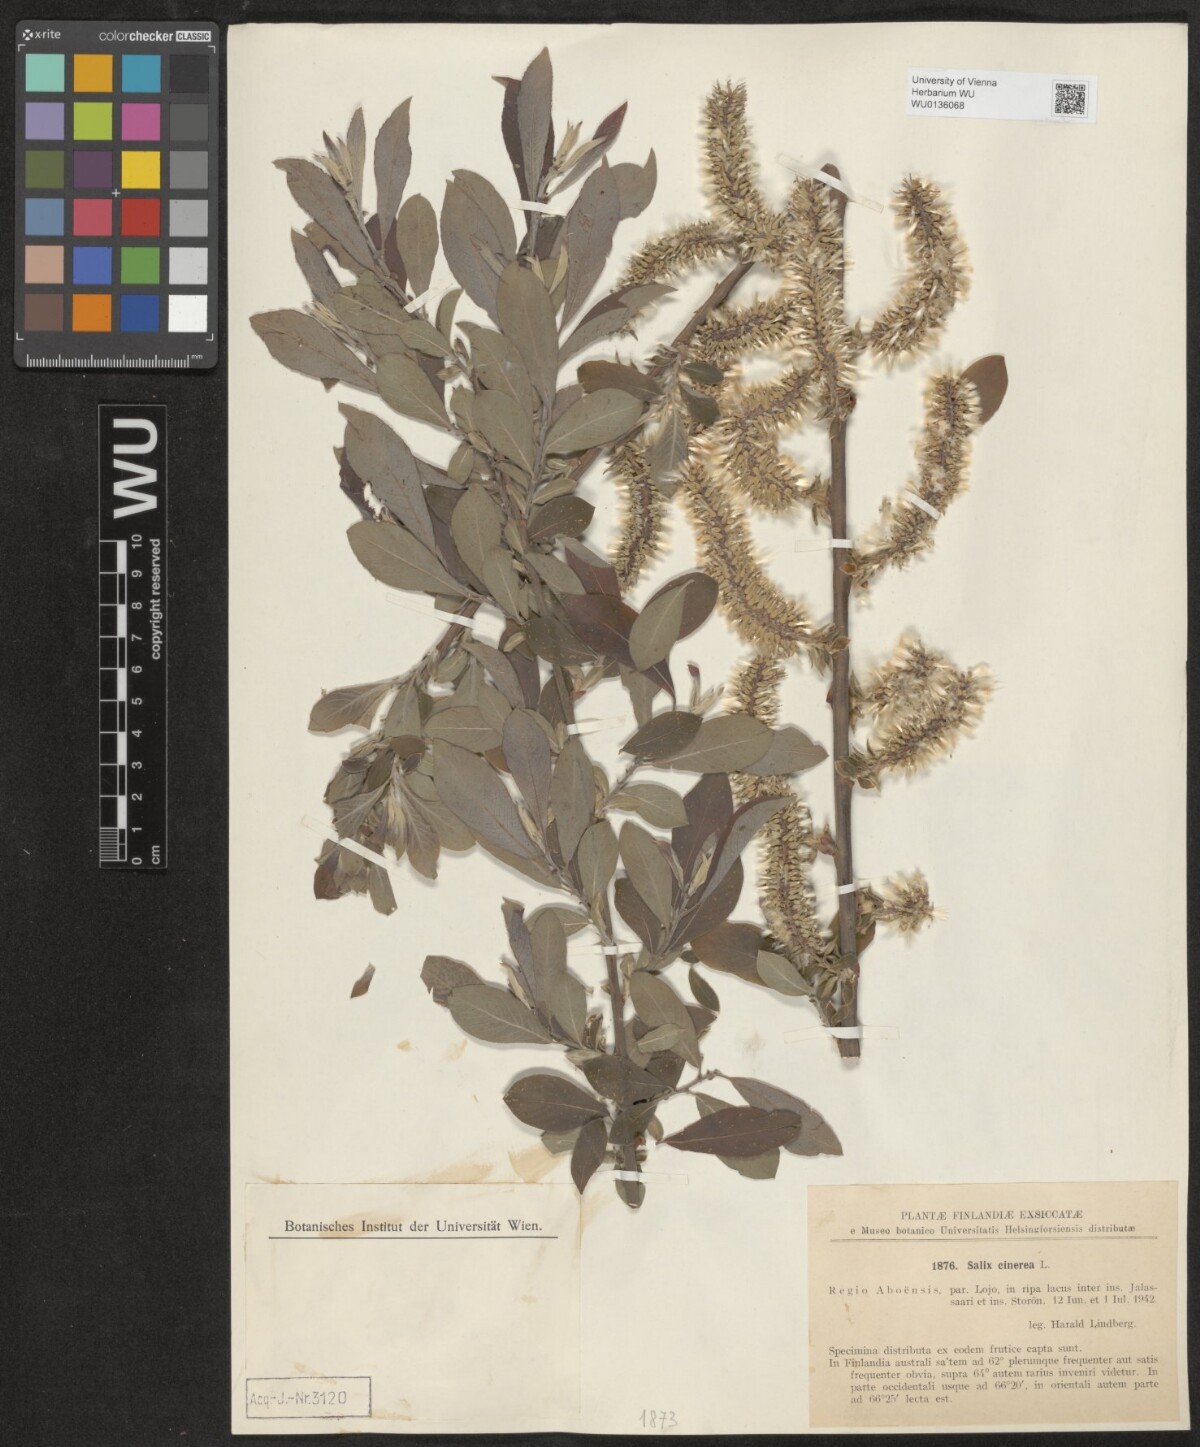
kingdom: Plantae
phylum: Tracheophyta
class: Magnoliopsida
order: Malpighiales
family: Salicaceae
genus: Salix
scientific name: Salix cinerea
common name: Common sallow
